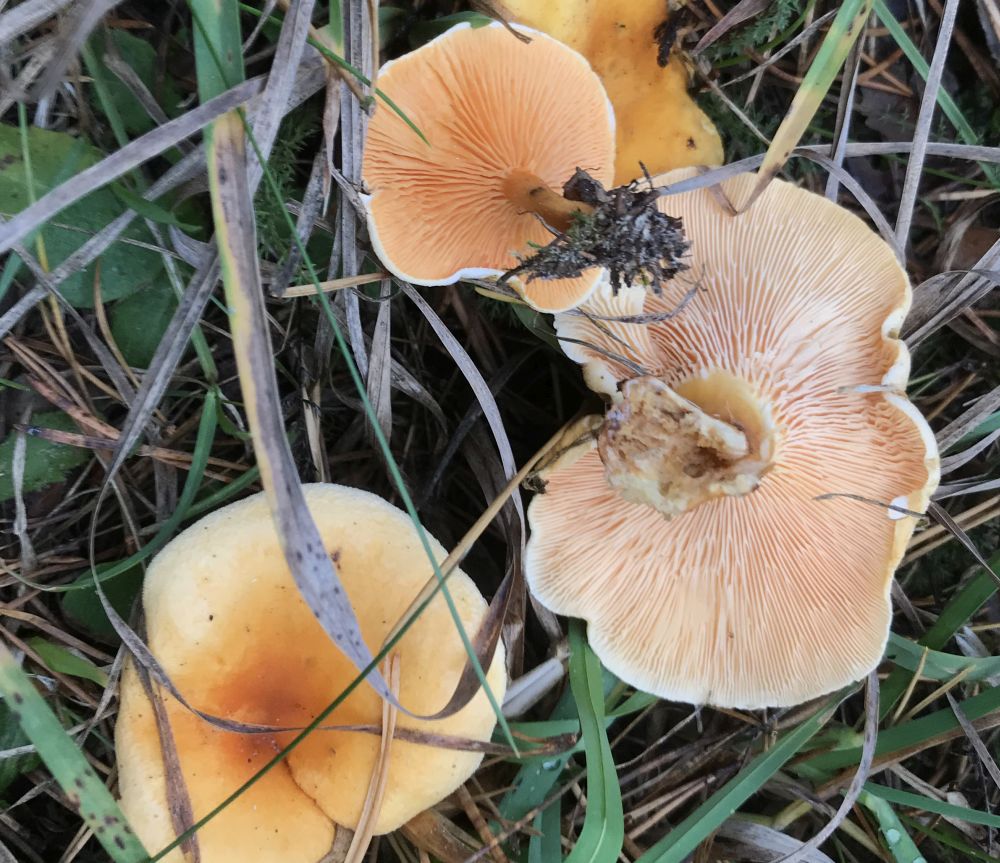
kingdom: Fungi
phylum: Basidiomycota
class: Agaricomycetes
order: Boletales
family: Hygrophoropsidaceae
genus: Hygrophoropsis
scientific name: Hygrophoropsis aurantiaca
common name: almindelig orangekantarel
